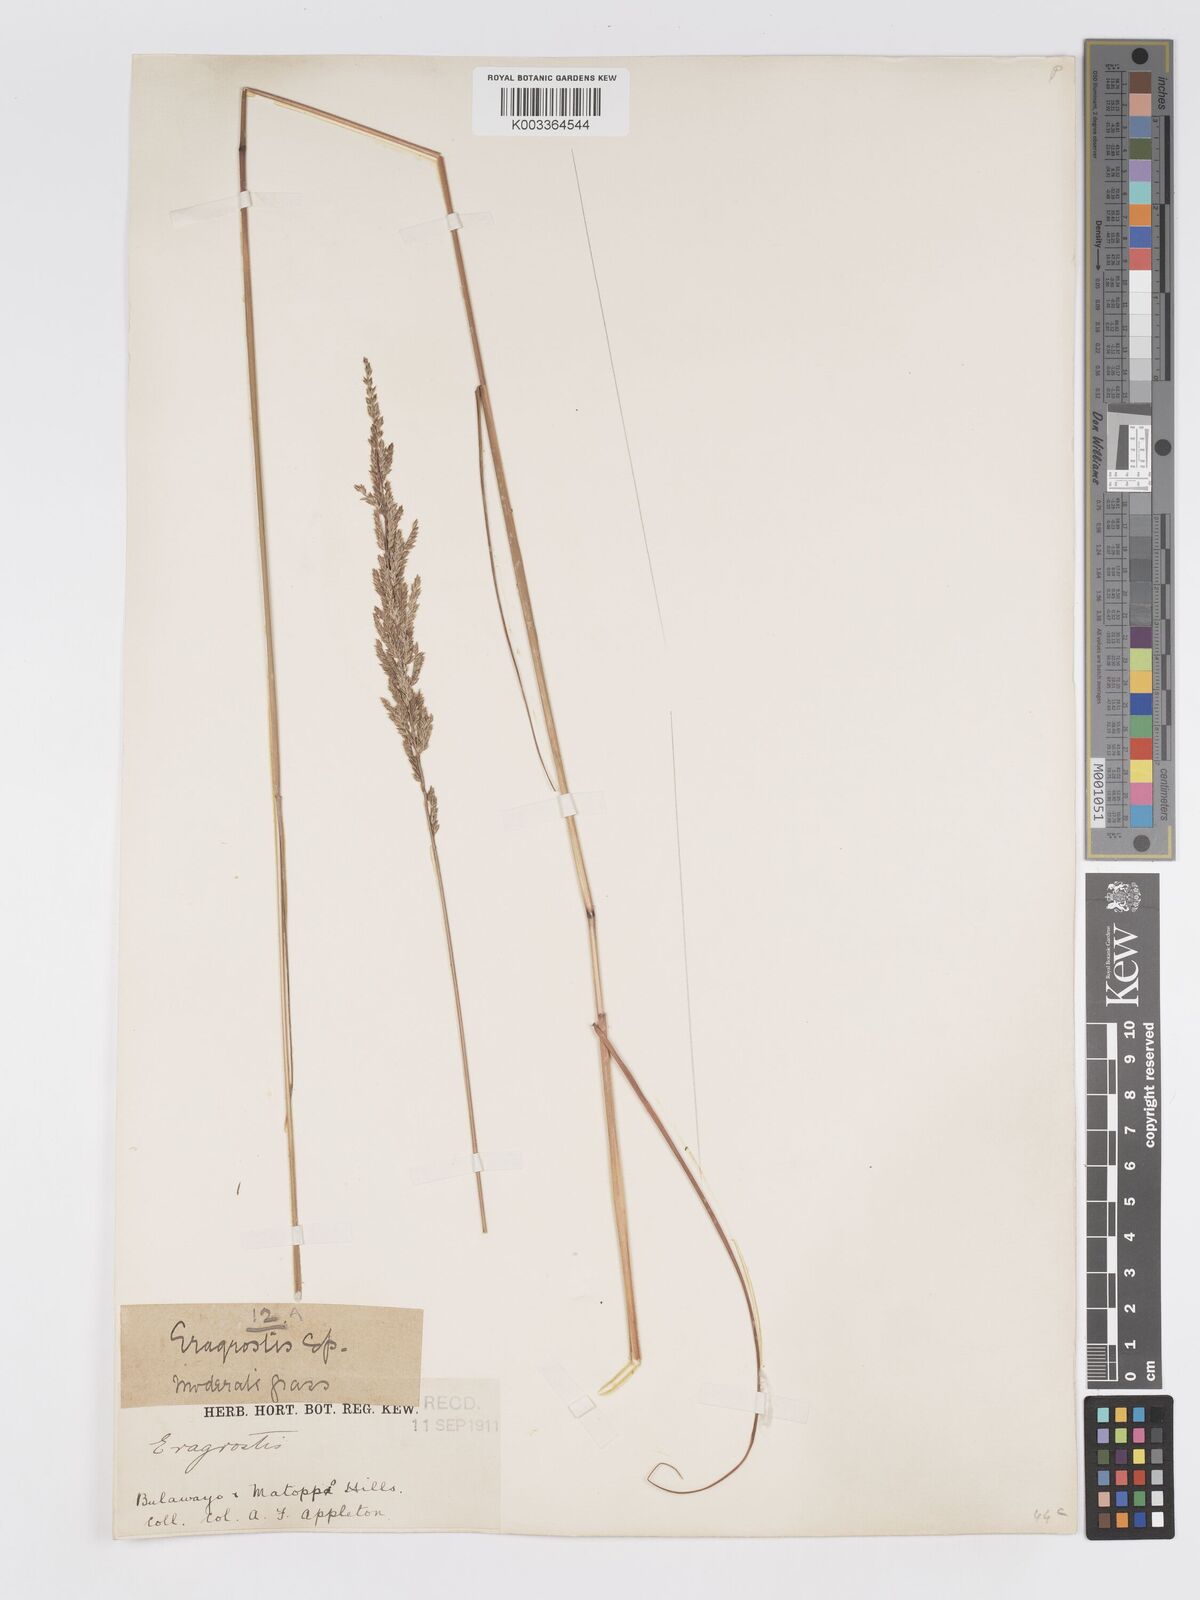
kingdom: Plantae
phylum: Tracheophyta
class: Liliopsida
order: Poales
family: Poaceae
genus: Eragrostis
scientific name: Eragrostis brainii
